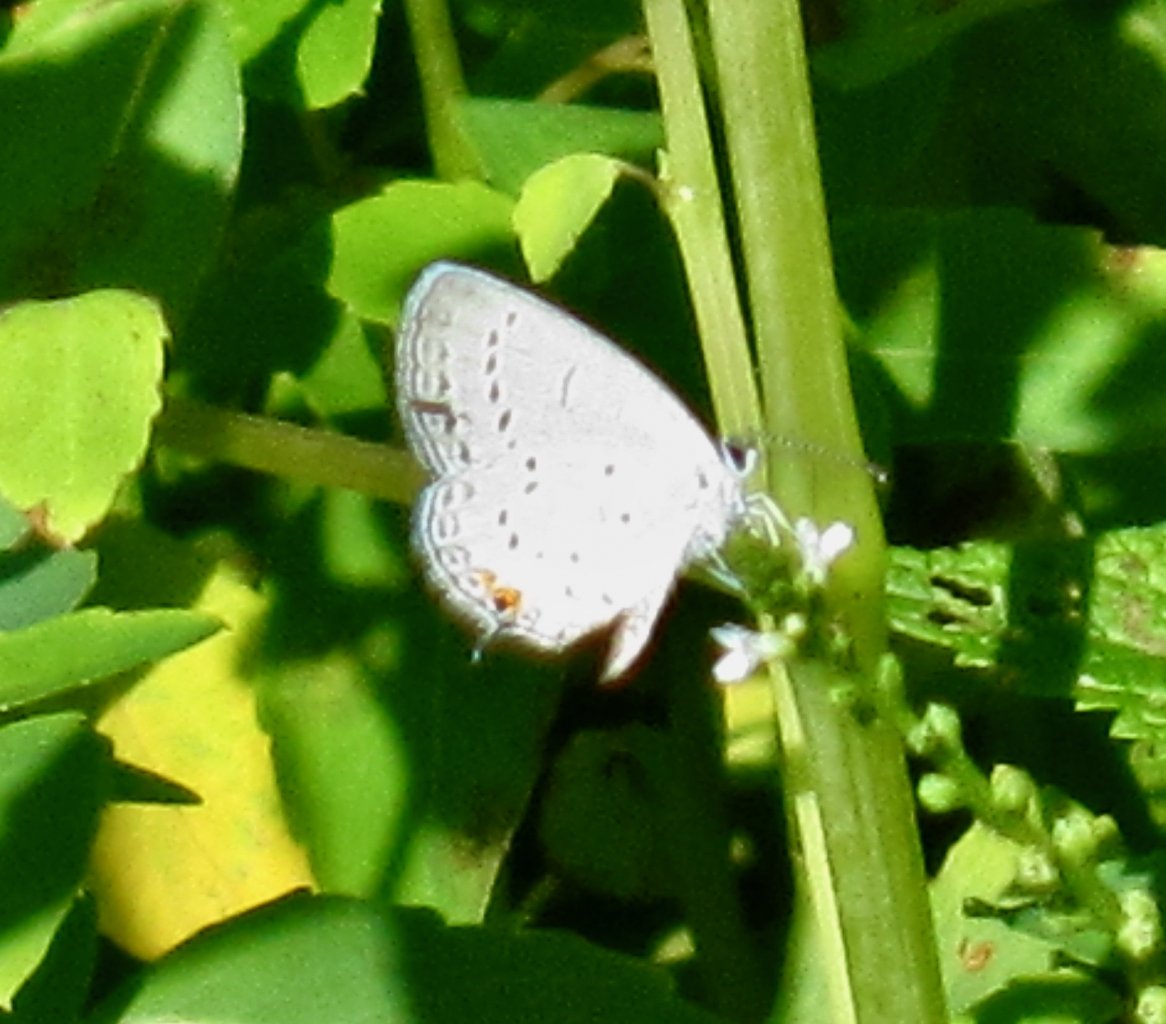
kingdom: Animalia
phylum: Arthropoda
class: Insecta
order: Lepidoptera
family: Lycaenidae
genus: Elkalyce
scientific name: Elkalyce comyntas
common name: Eastern Tailed-Blue
